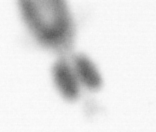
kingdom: Animalia
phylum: Arthropoda
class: Copepoda
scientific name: Copepoda
